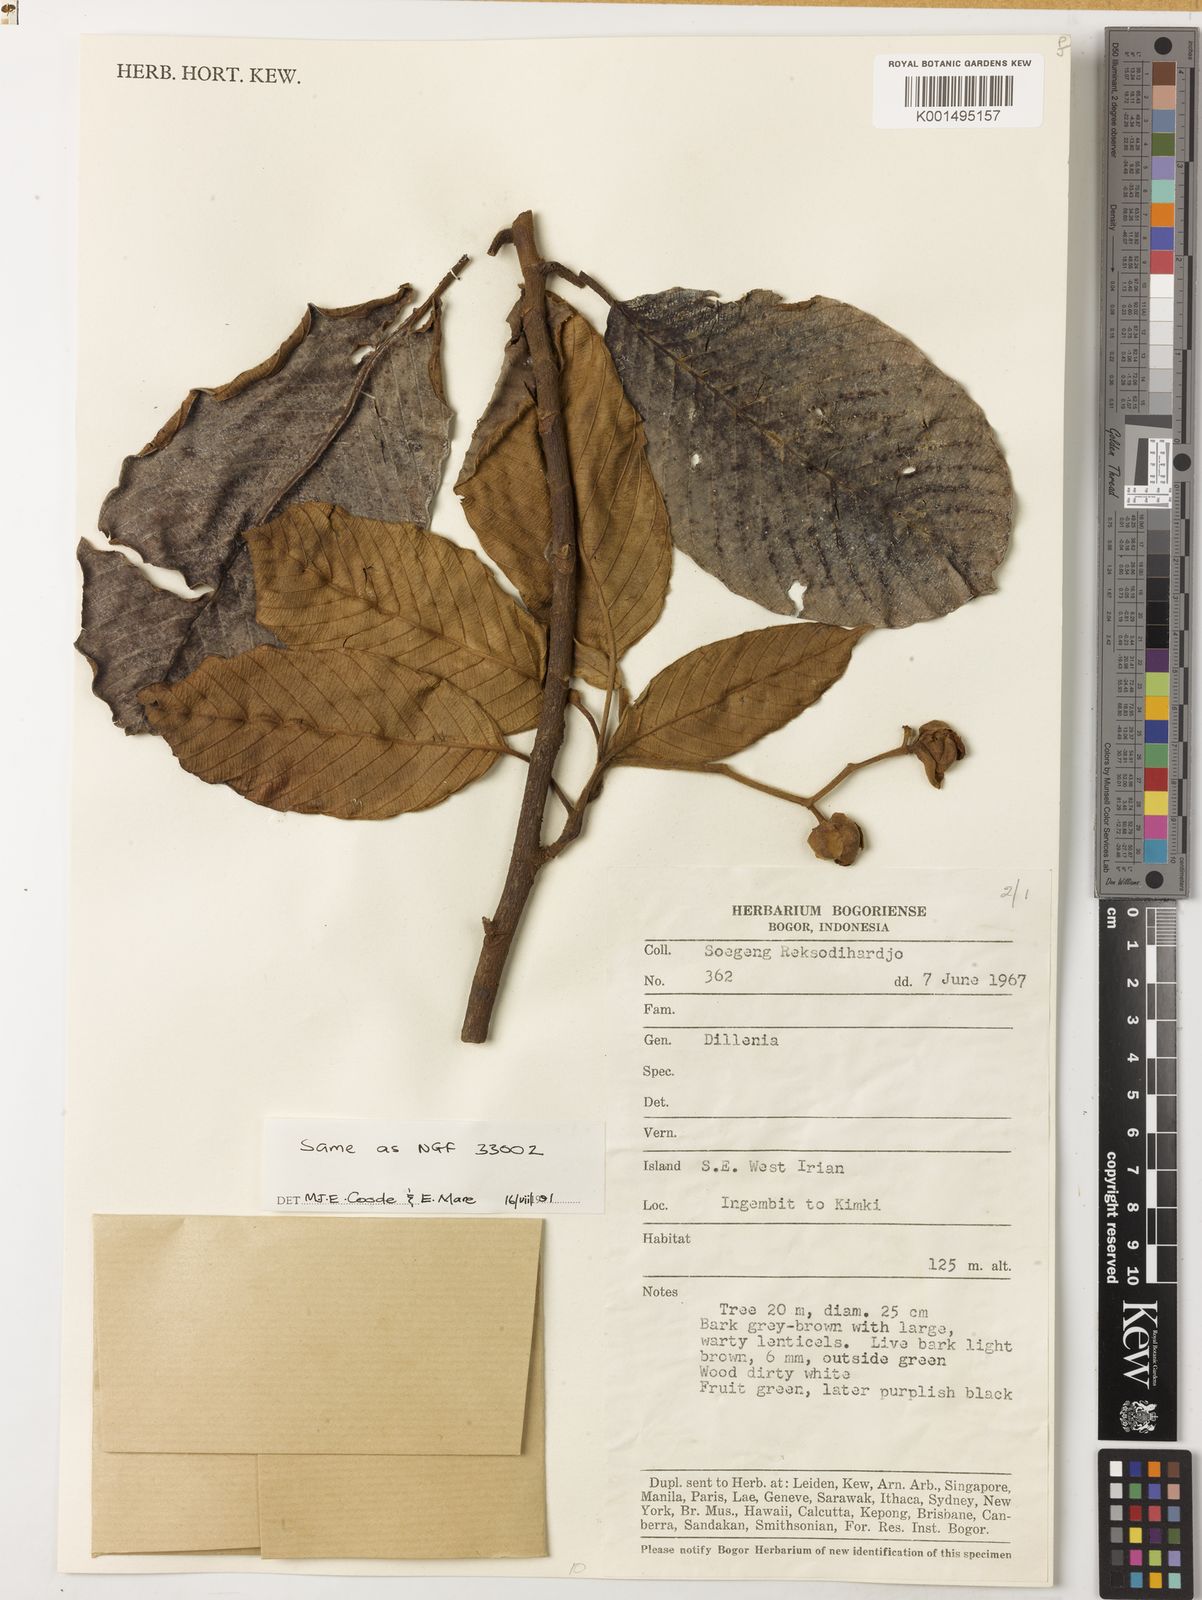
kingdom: Plantae
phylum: Tracheophyta
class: Magnoliopsida
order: Dilleniales
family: Dilleniaceae
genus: Dillenia
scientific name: Dillenia
